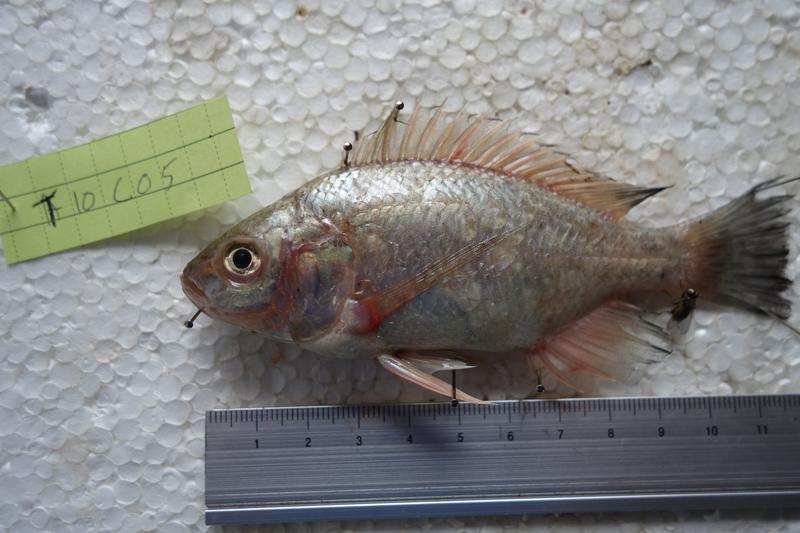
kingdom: Animalia
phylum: Chordata
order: Perciformes
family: Cichlidae
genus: Oreochromis
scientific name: Oreochromis esculentus
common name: Carp
